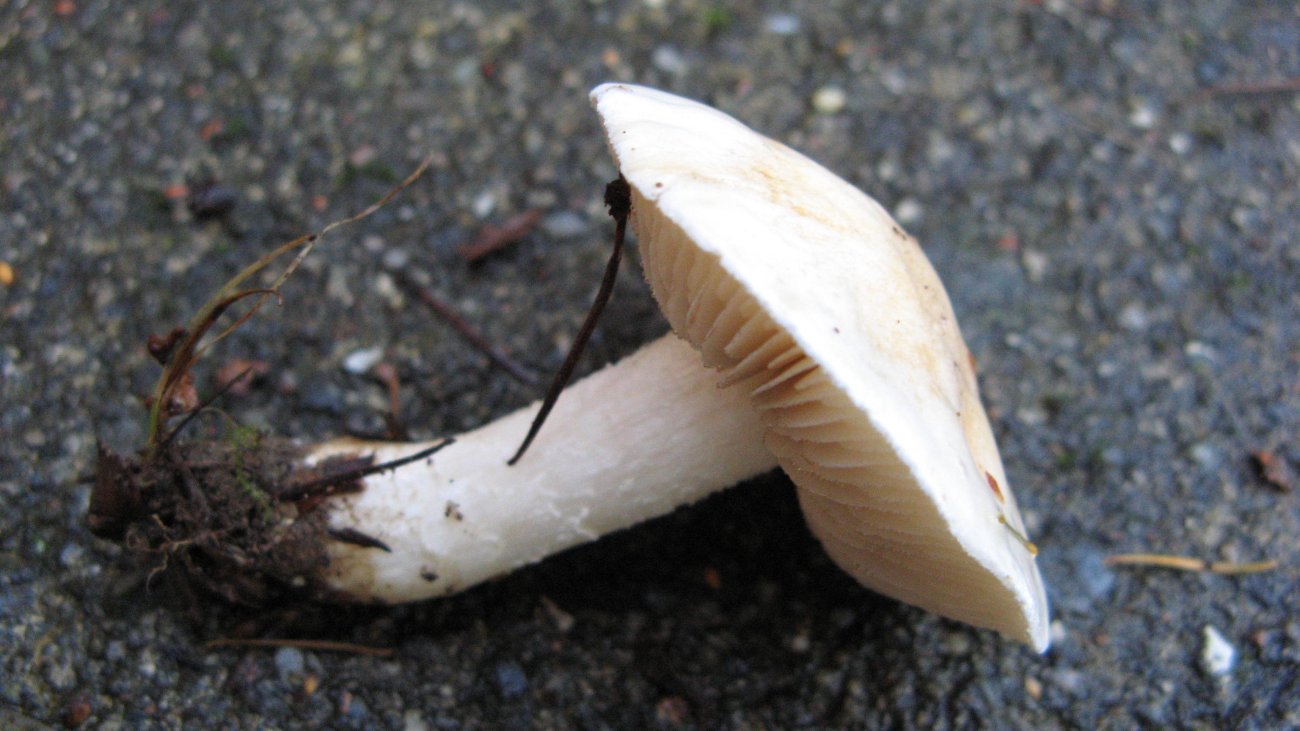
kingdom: Fungi
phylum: Basidiomycota
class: Agaricomycetes
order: Agaricales
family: Hymenogastraceae
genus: Hebeloma
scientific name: Hebeloma eburneum
